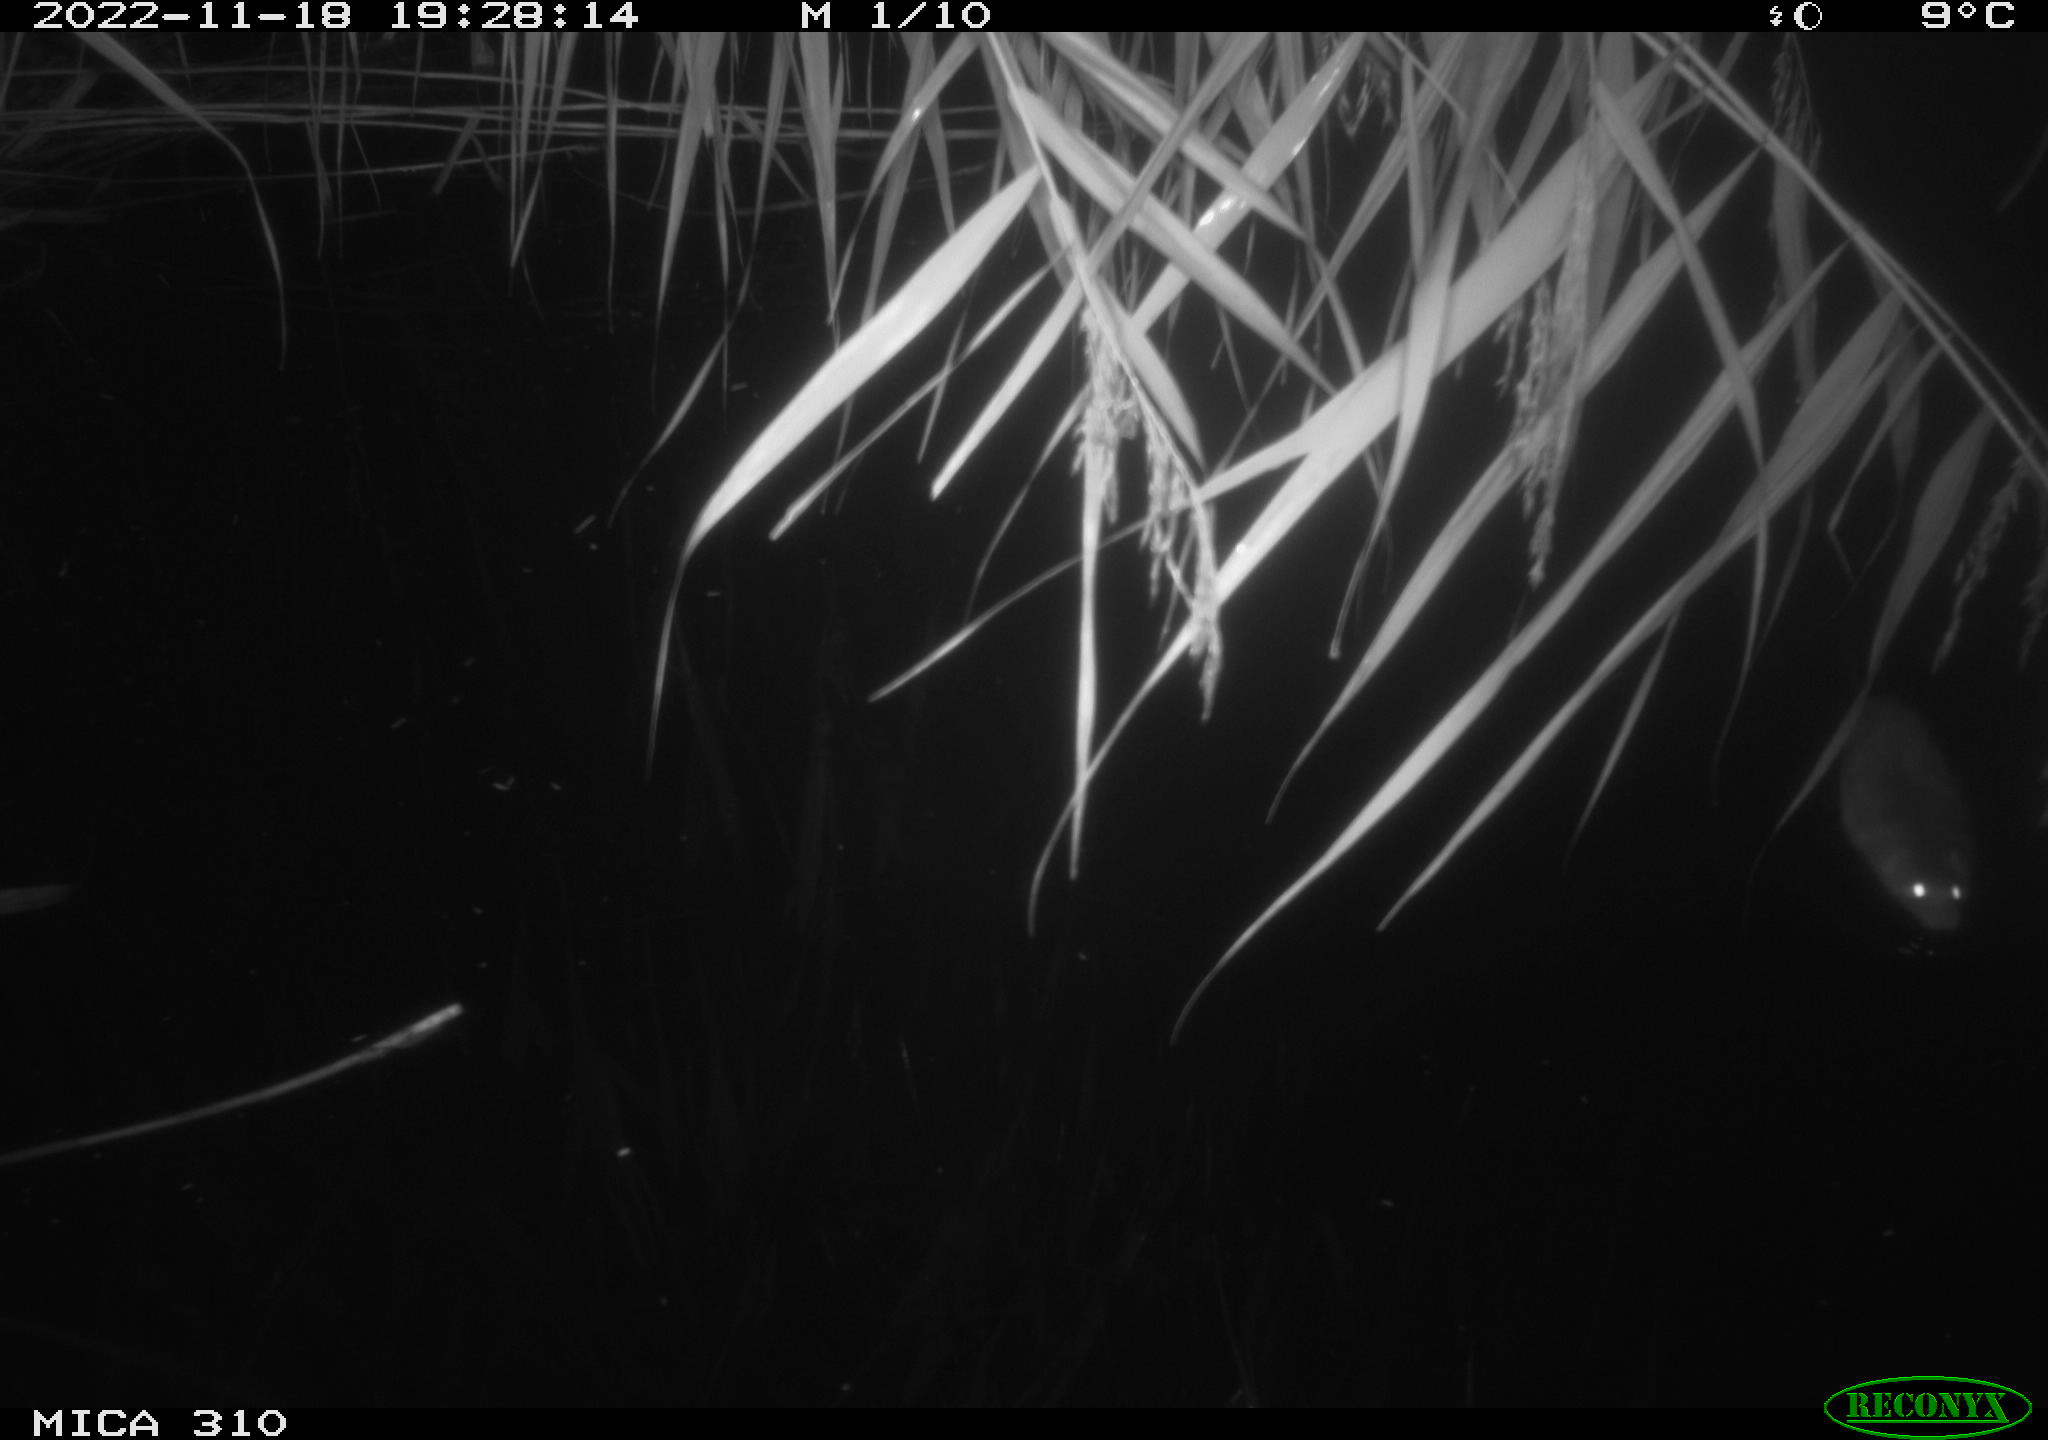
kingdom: Animalia
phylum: Chordata
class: Mammalia
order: Rodentia
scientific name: Rodentia
